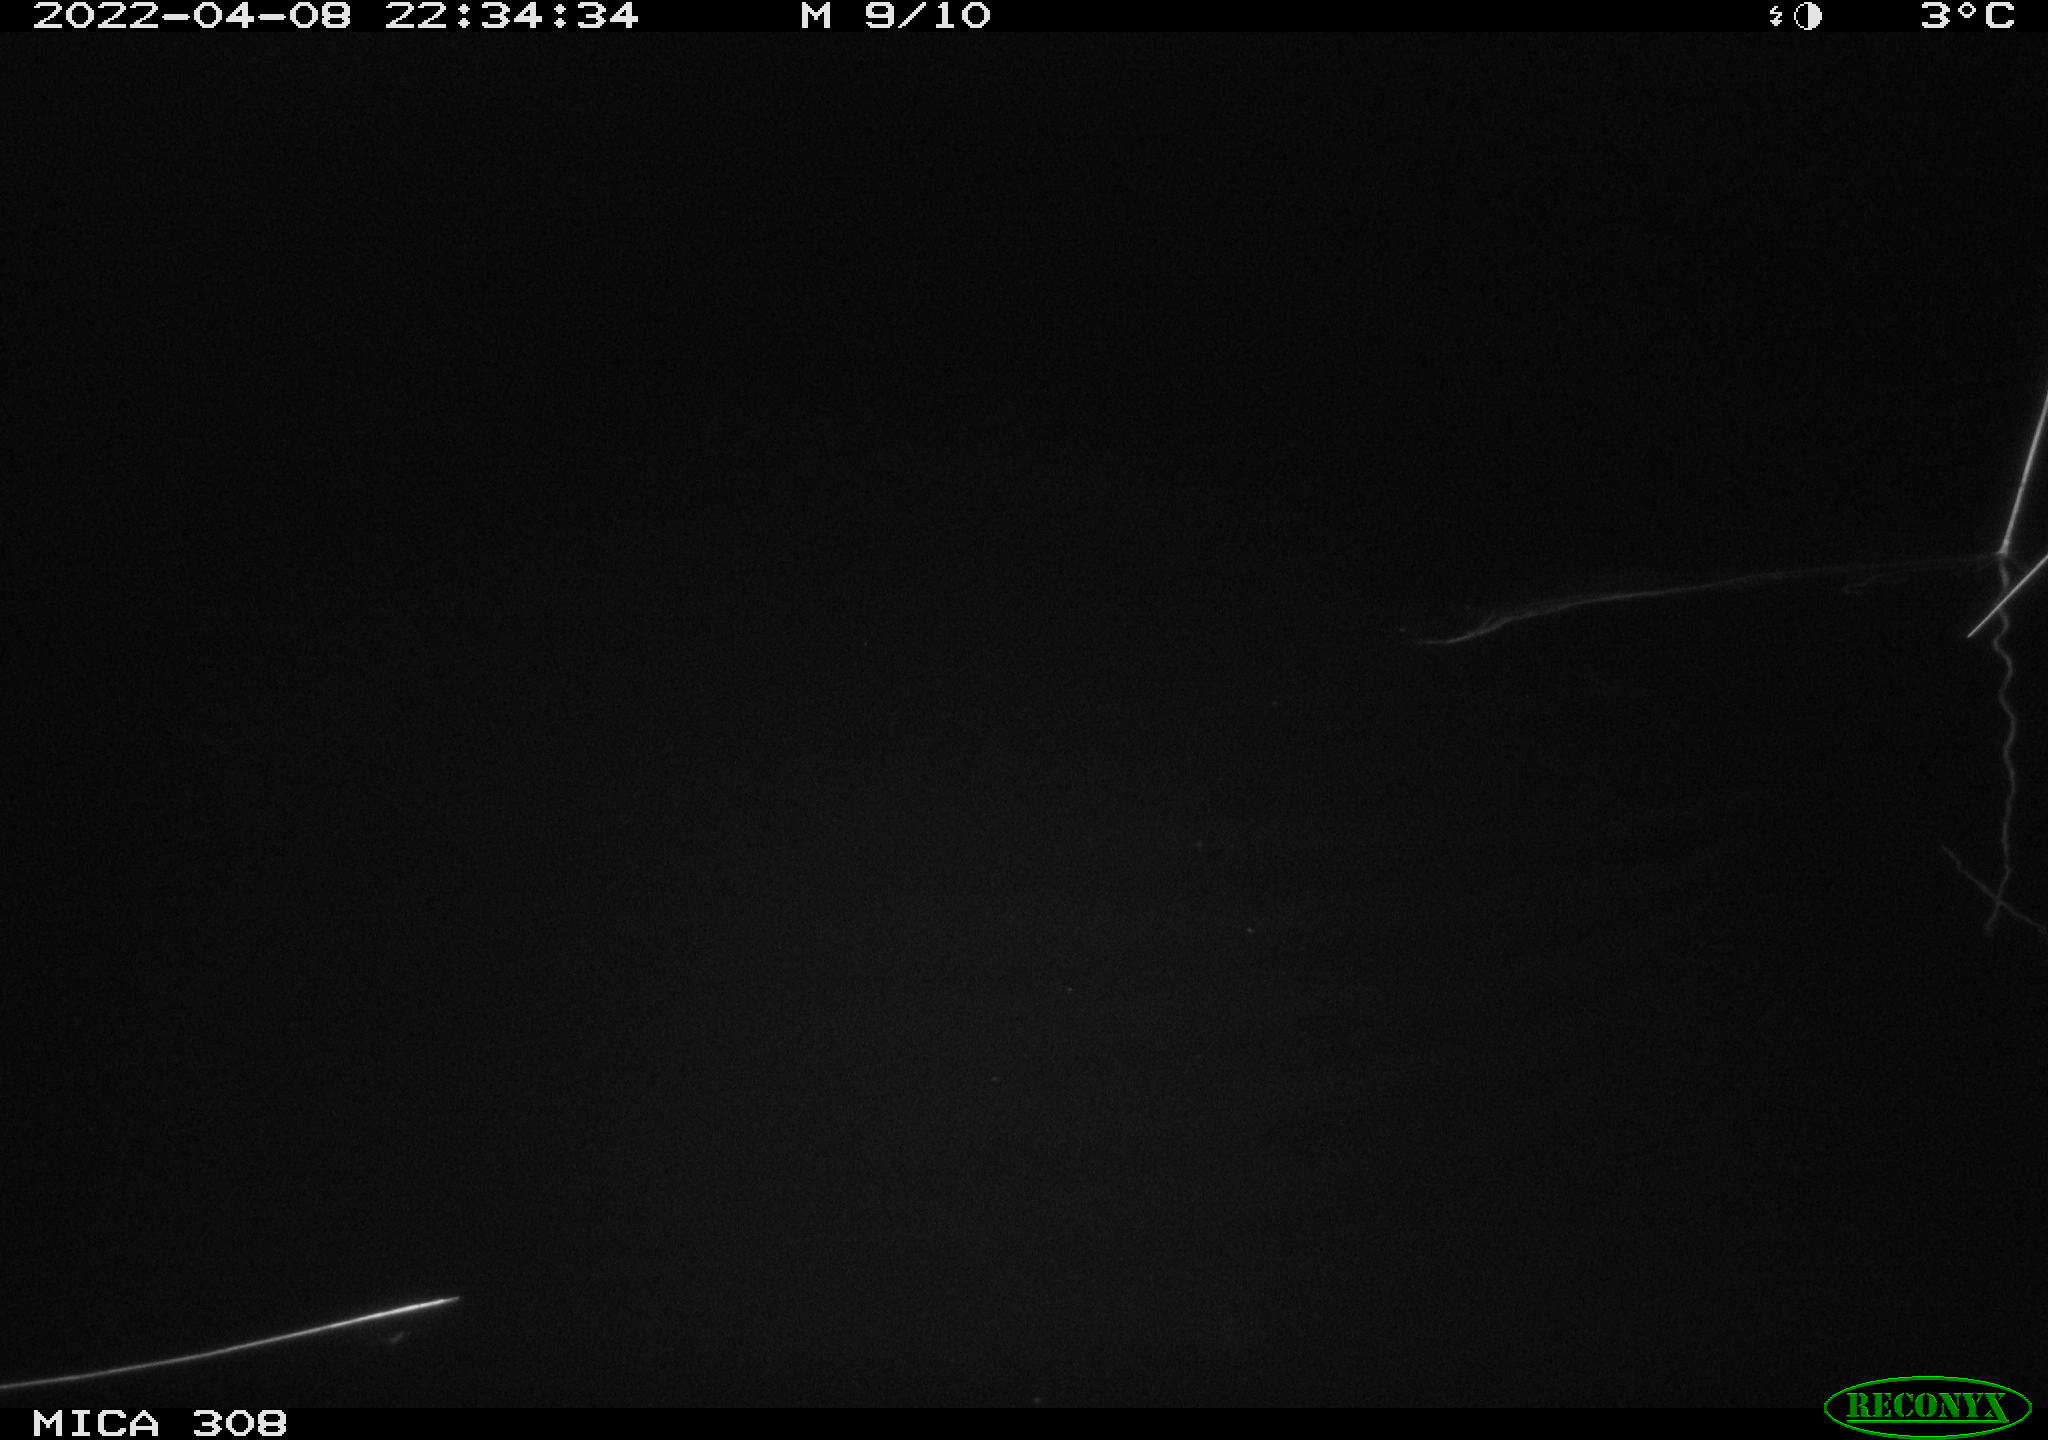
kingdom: Animalia
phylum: Chordata
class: Aves
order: Anseriformes
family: Anatidae
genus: Anas
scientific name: Anas platyrhynchos
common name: Mallard
